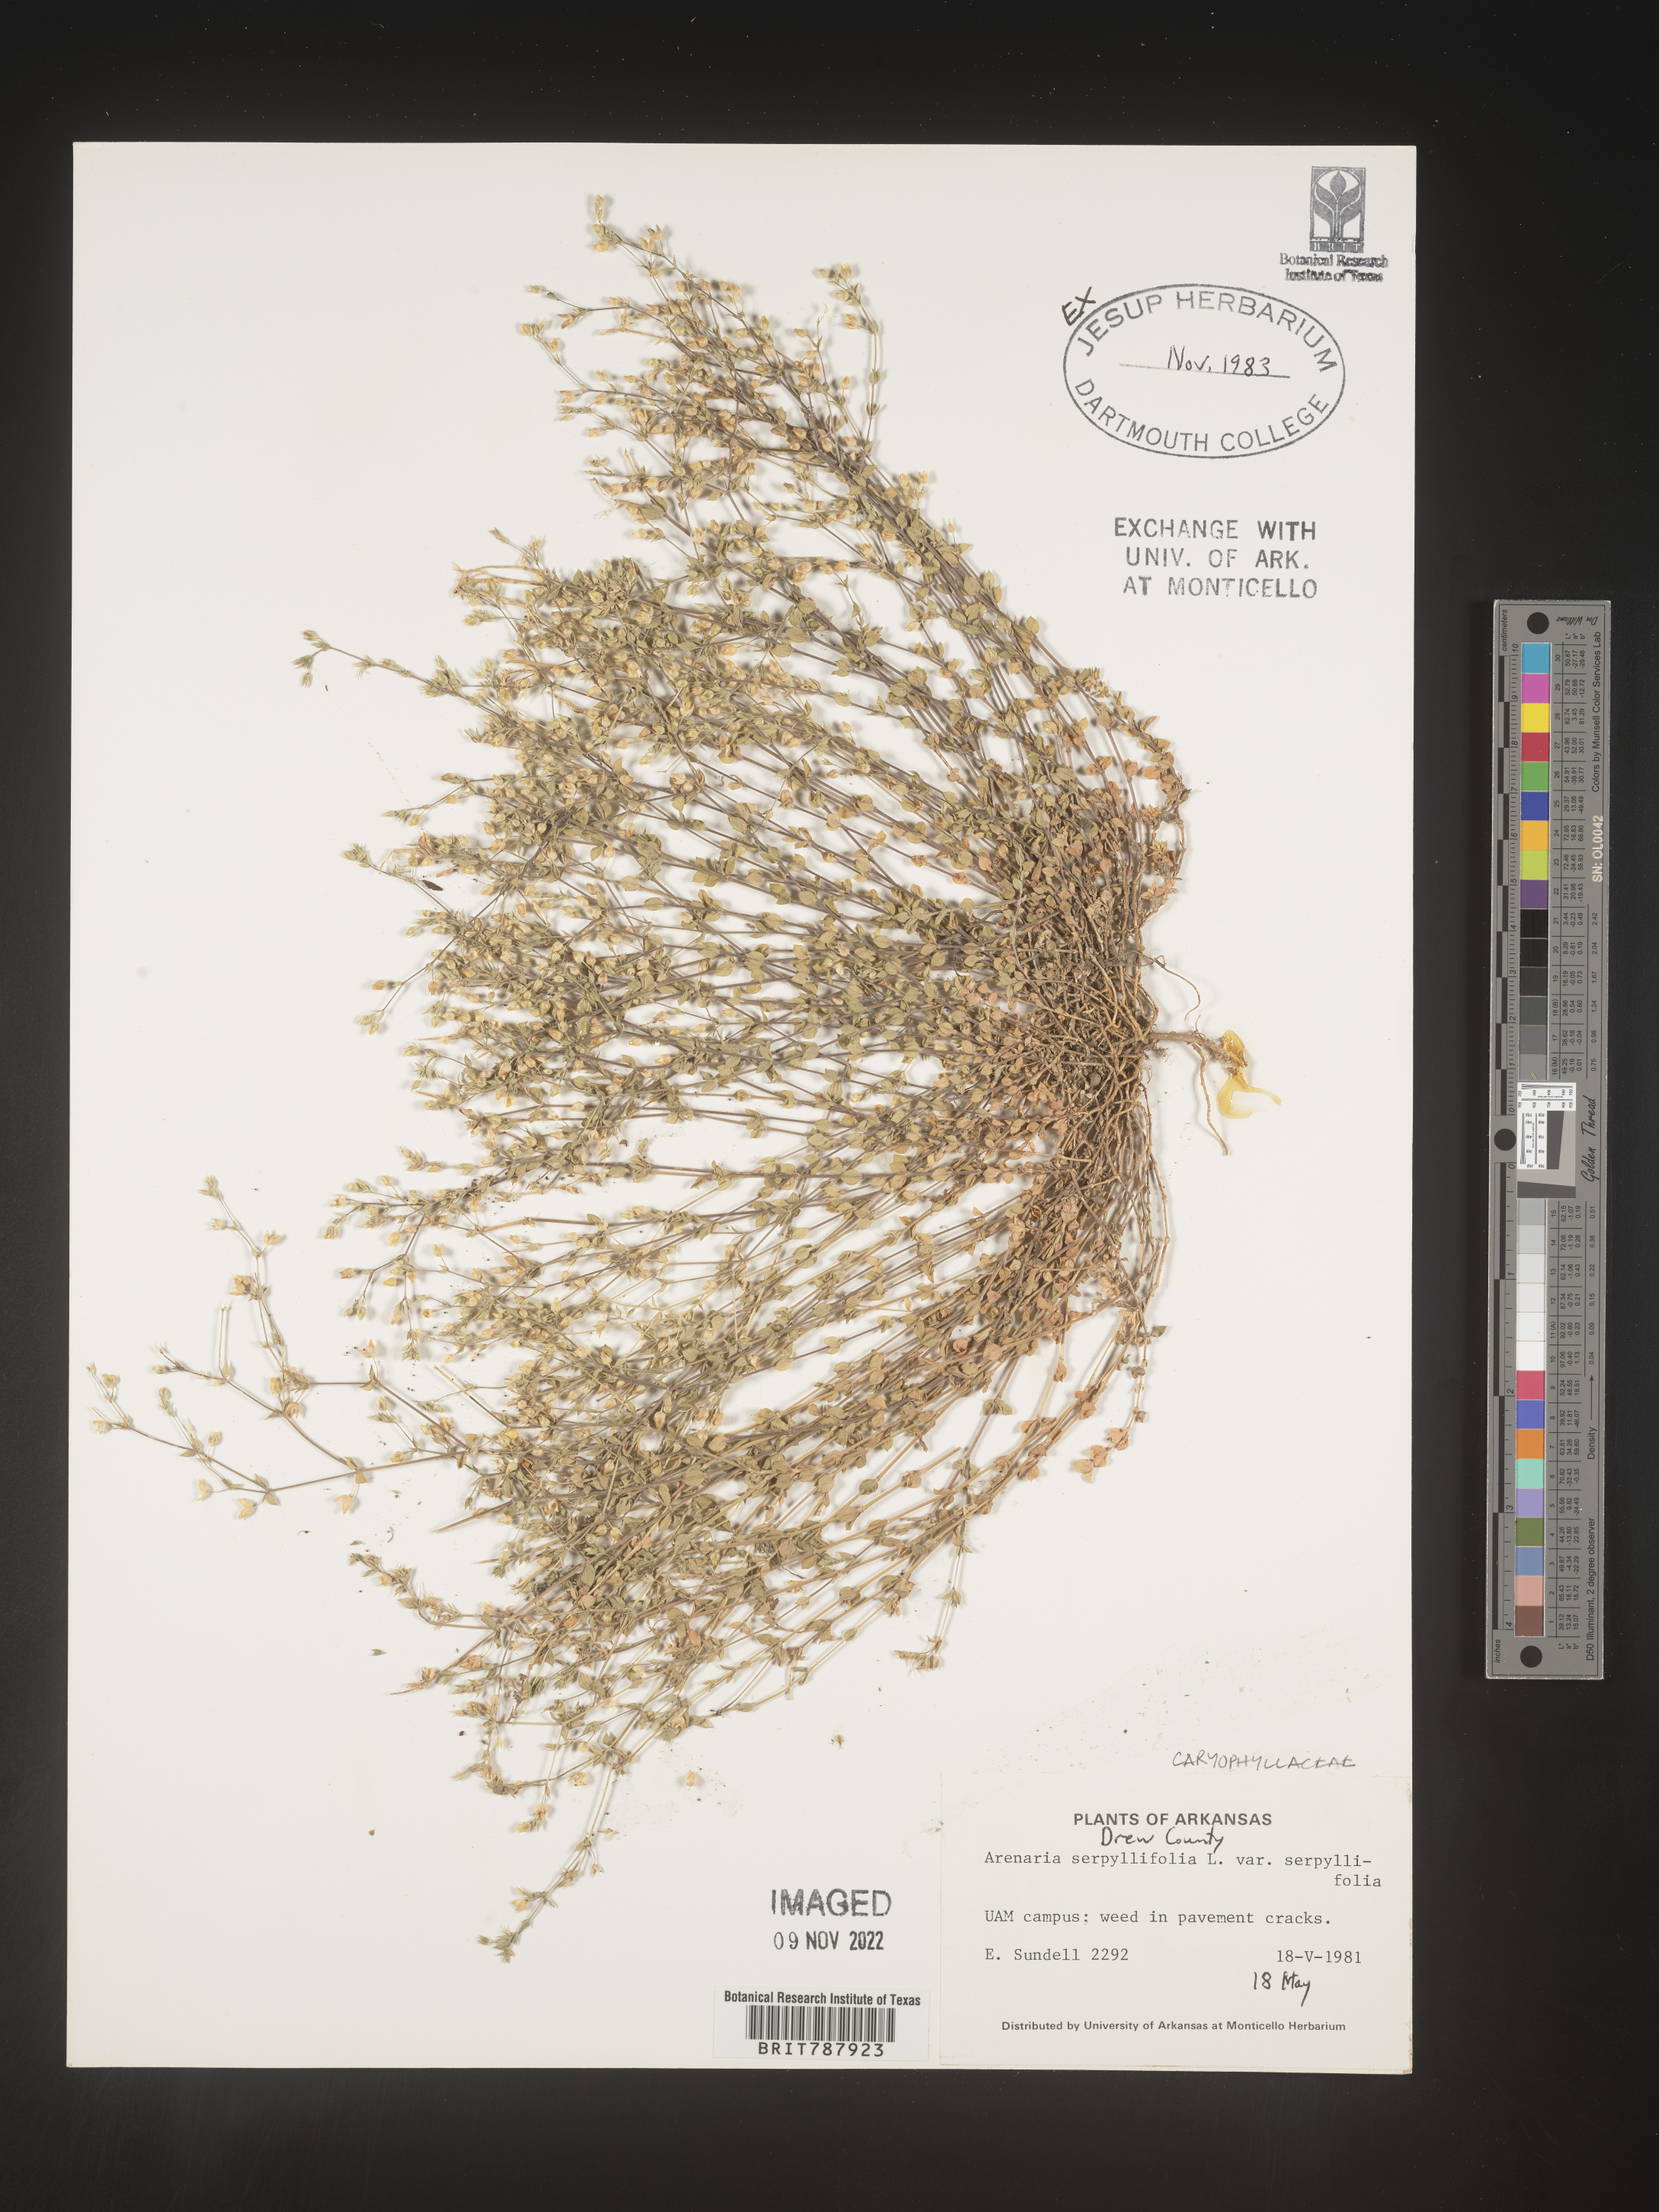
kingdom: Plantae
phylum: Tracheophyta
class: Magnoliopsida
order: Caryophyllales
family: Caryophyllaceae
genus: Arenaria
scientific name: Arenaria serpyllifolia
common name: Thyme-leaved sandwort
